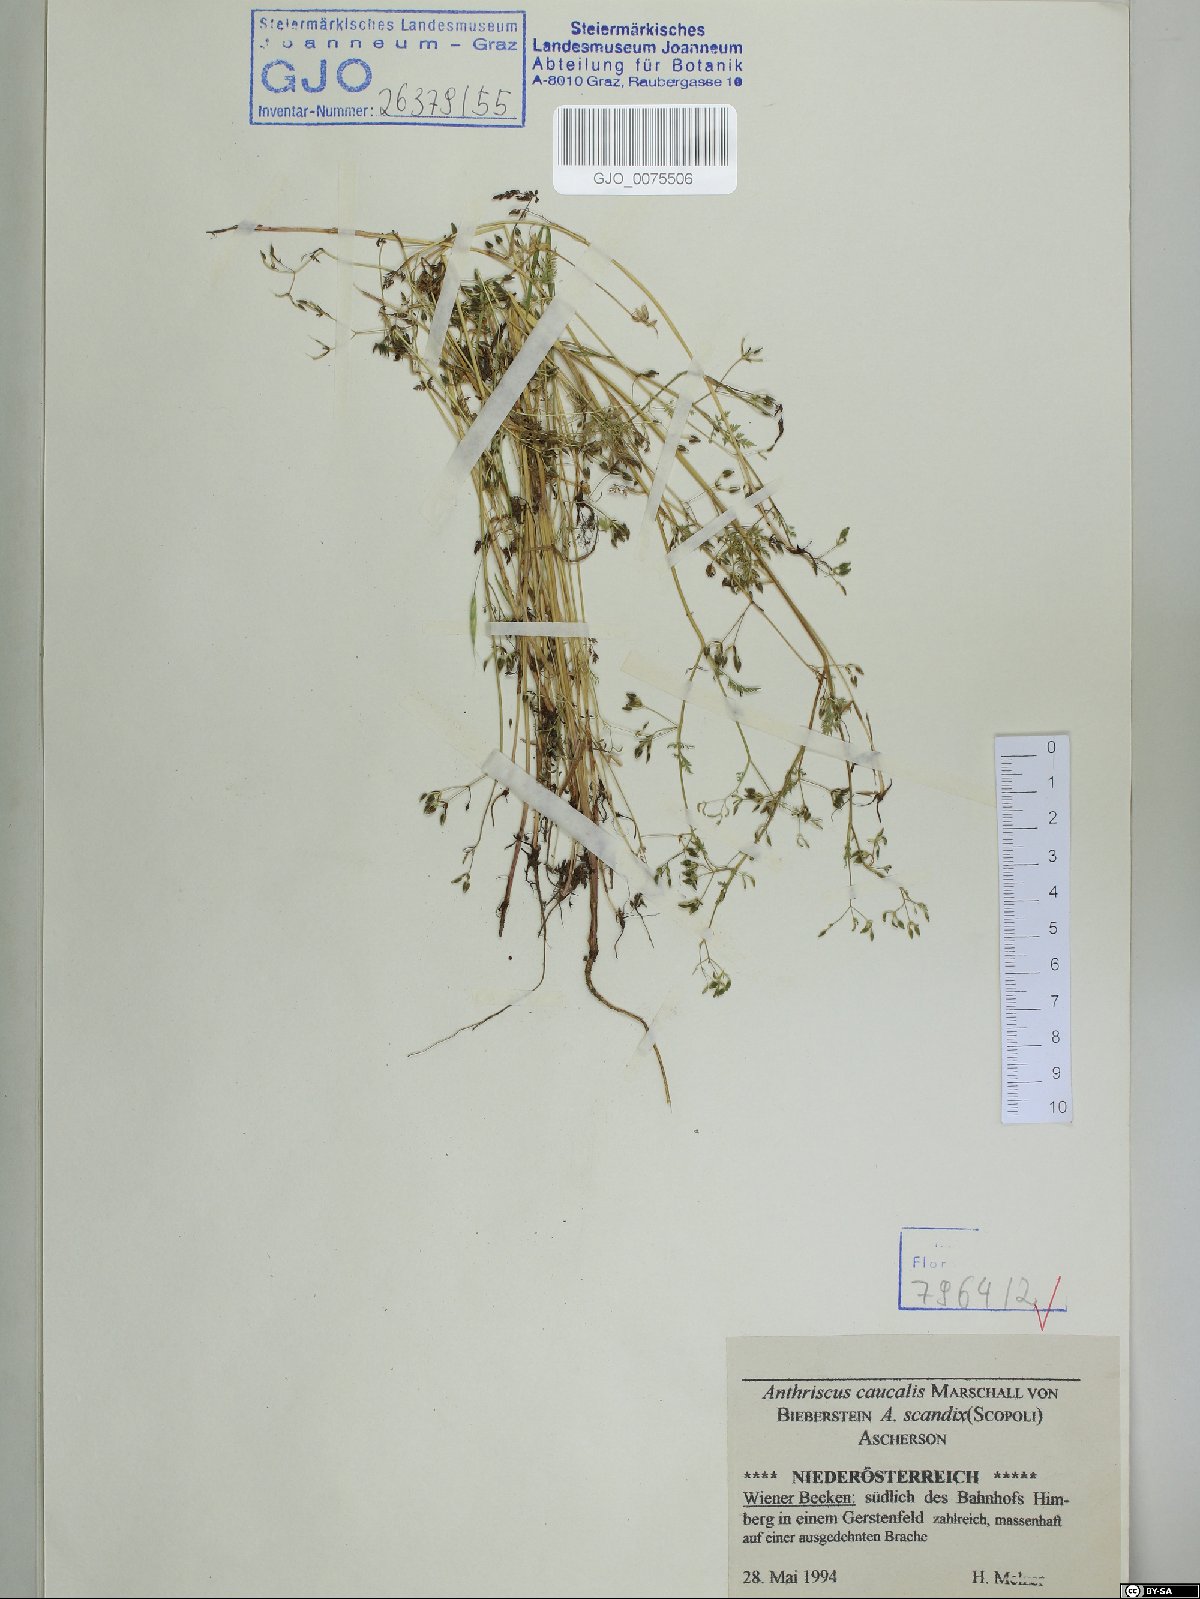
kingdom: Plantae
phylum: Tracheophyta
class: Magnoliopsida
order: Apiales
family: Apiaceae
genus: Anthriscus
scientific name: Anthriscus caucalis
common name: Bur chervil
